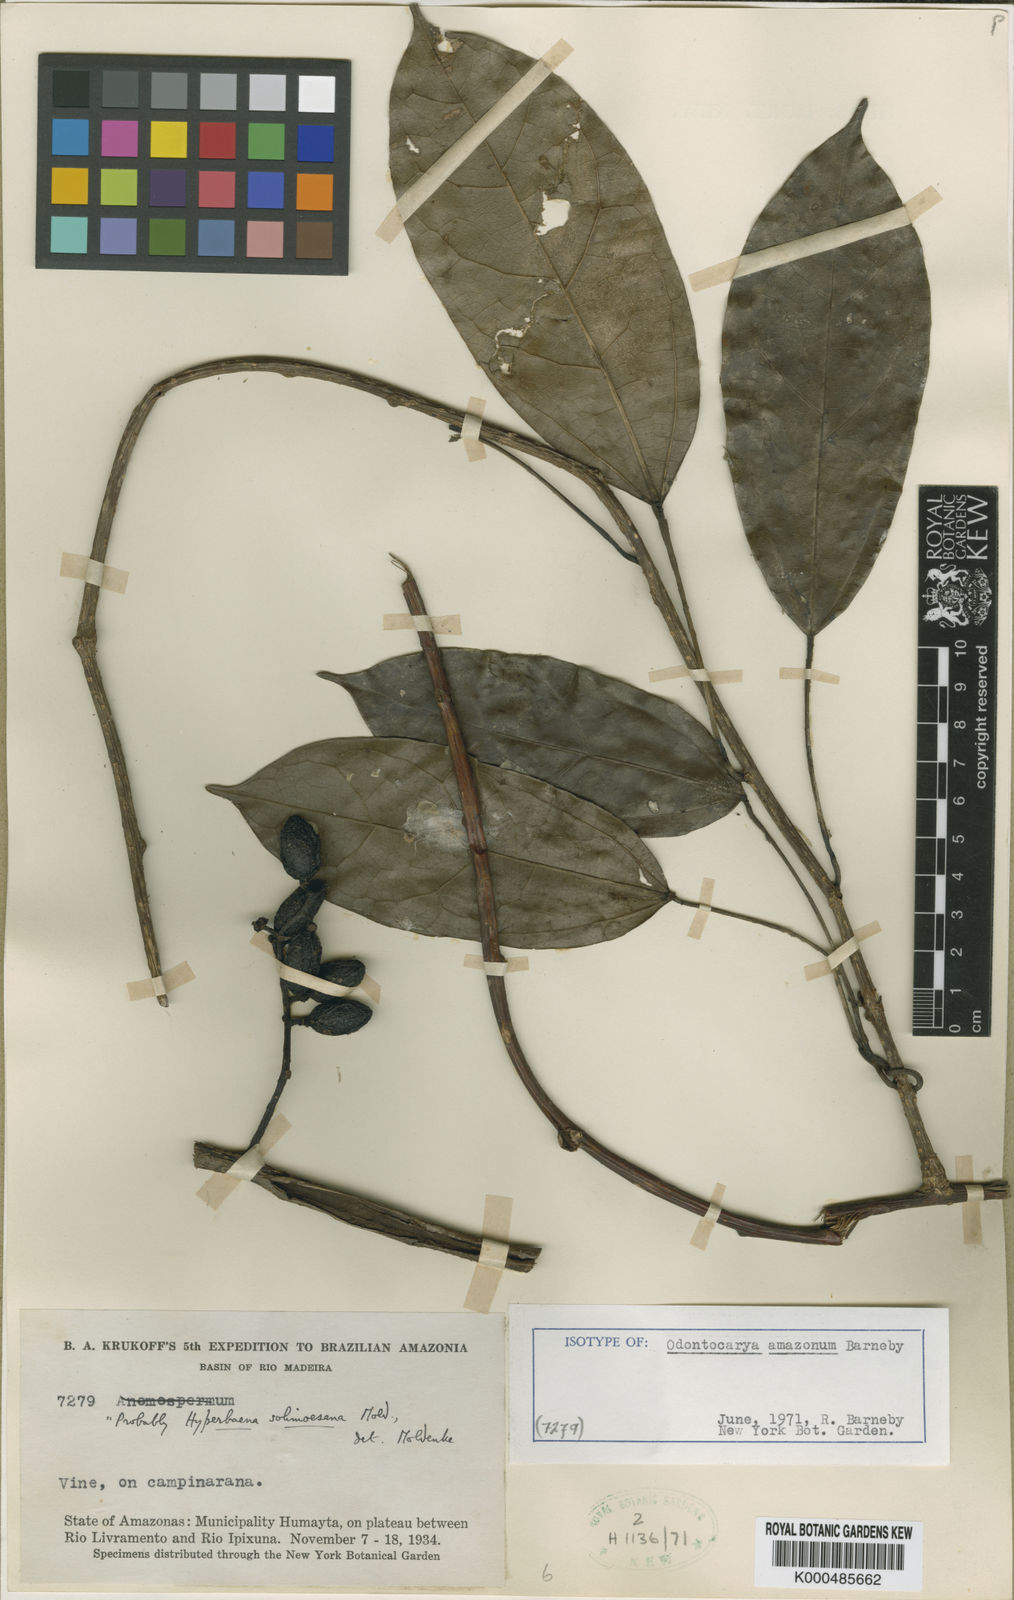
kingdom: Plantae
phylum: Tracheophyta
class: Magnoliopsida
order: Ranunculales
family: Menispermaceae
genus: Odontocarya
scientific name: Odontocarya amazonum
